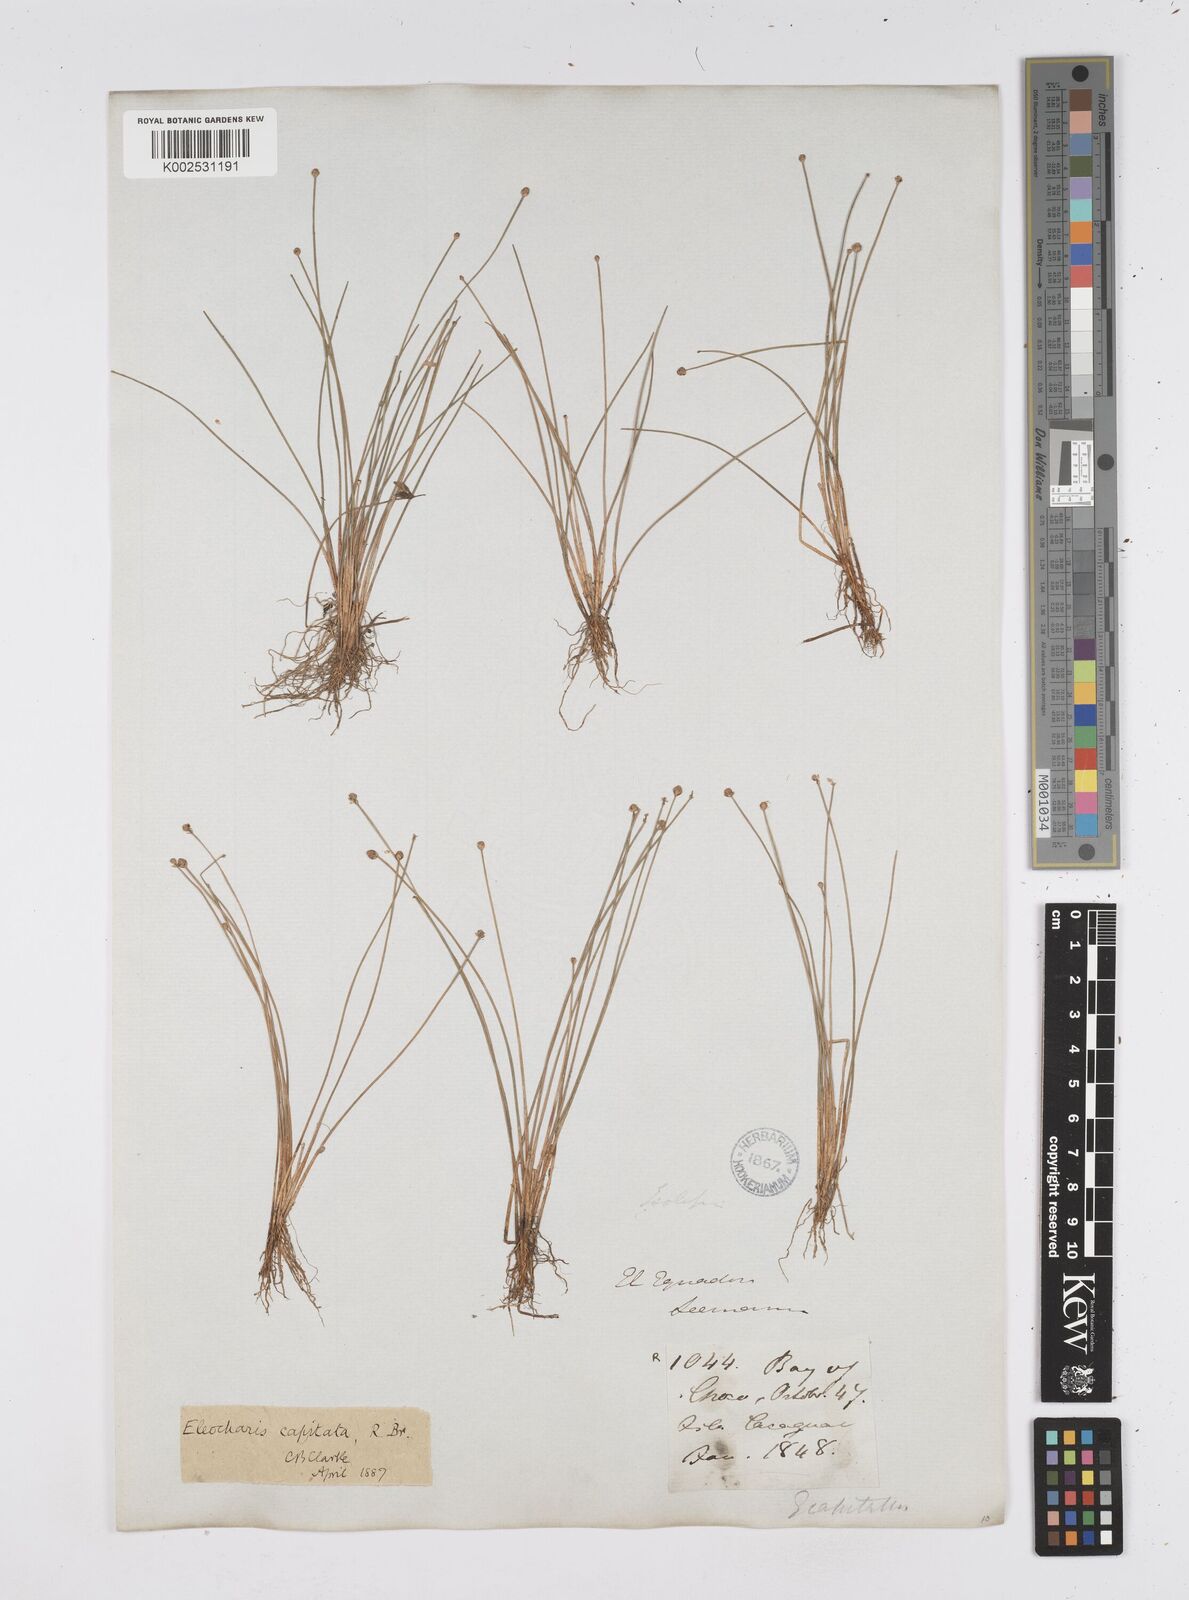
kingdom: Plantae
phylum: Tracheophyta
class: Liliopsida
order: Poales
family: Cyperaceae
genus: Eleocharis
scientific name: Eleocharis geniculata
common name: Canada spikesedge
